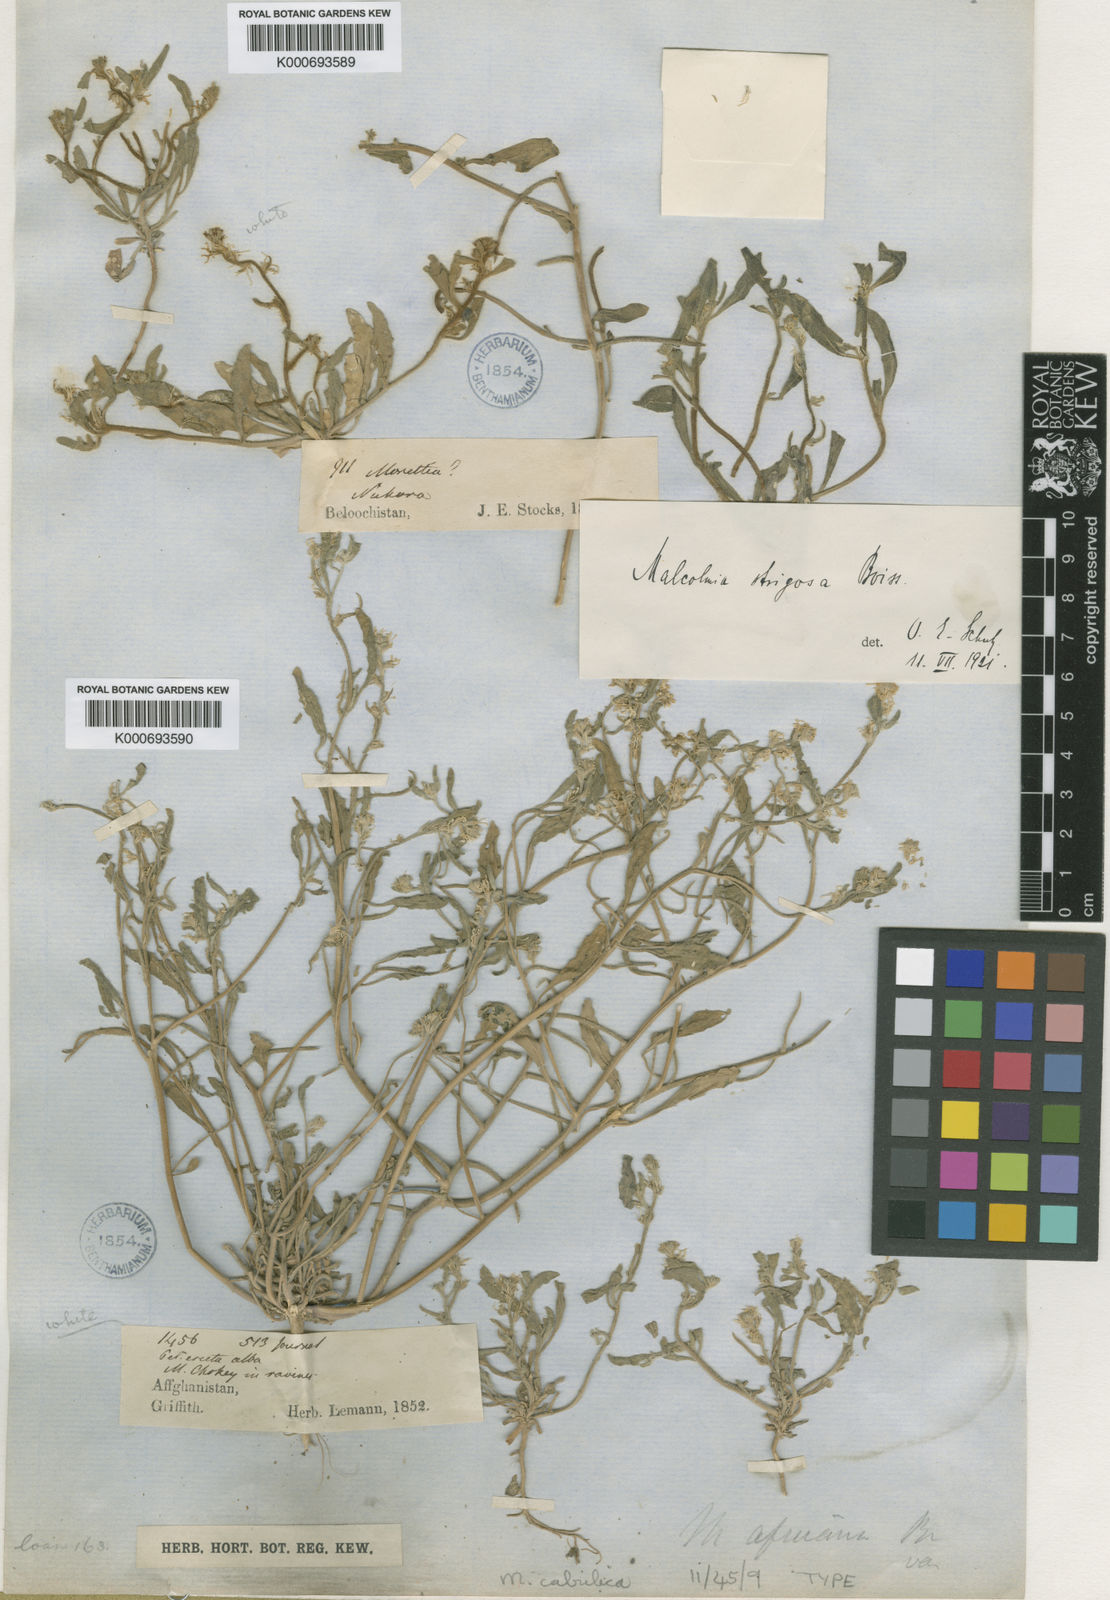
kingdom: Plantae
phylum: Tracheophyta
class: Magnoliopsida
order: Brassicales
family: Brassicaceae
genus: Strigosella
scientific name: Strigosella cabulica
